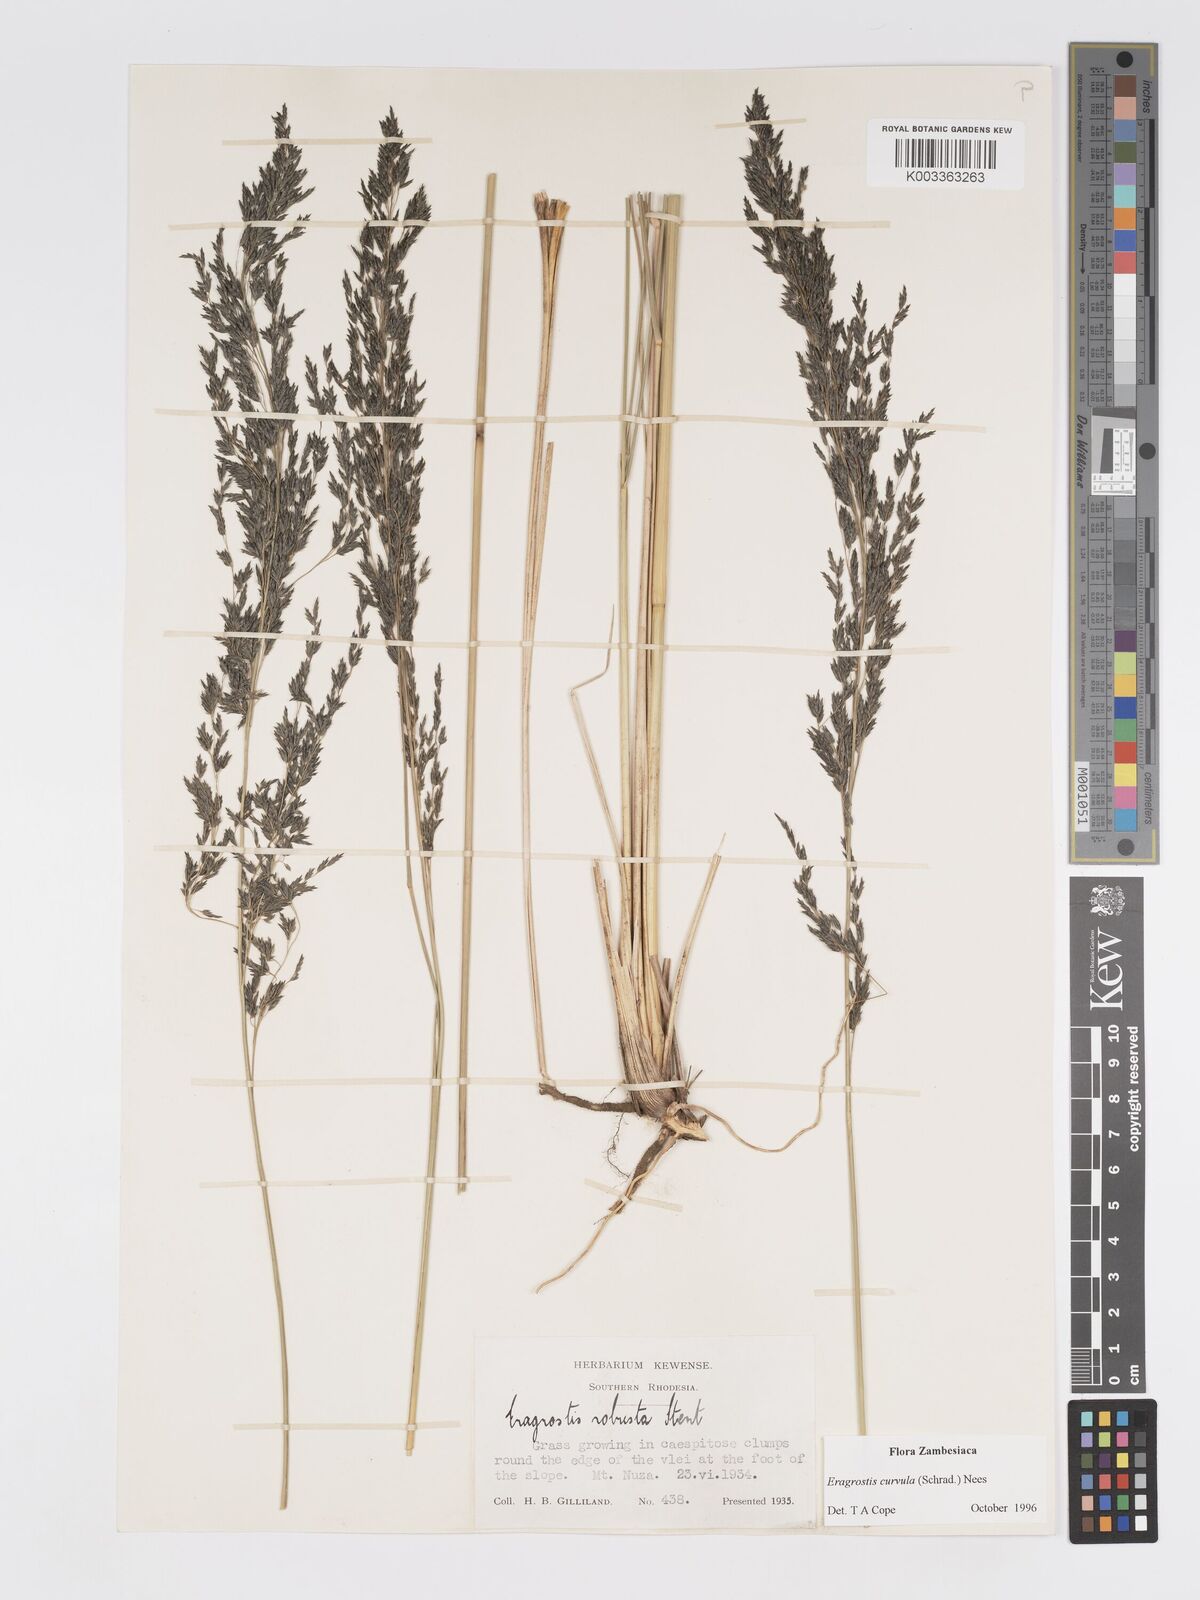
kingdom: Plantae
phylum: Tracheophyta
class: Liliopsida
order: Poales
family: Poaceae
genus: Eragrostis
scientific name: Eragrostis curvula
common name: African love-grass
